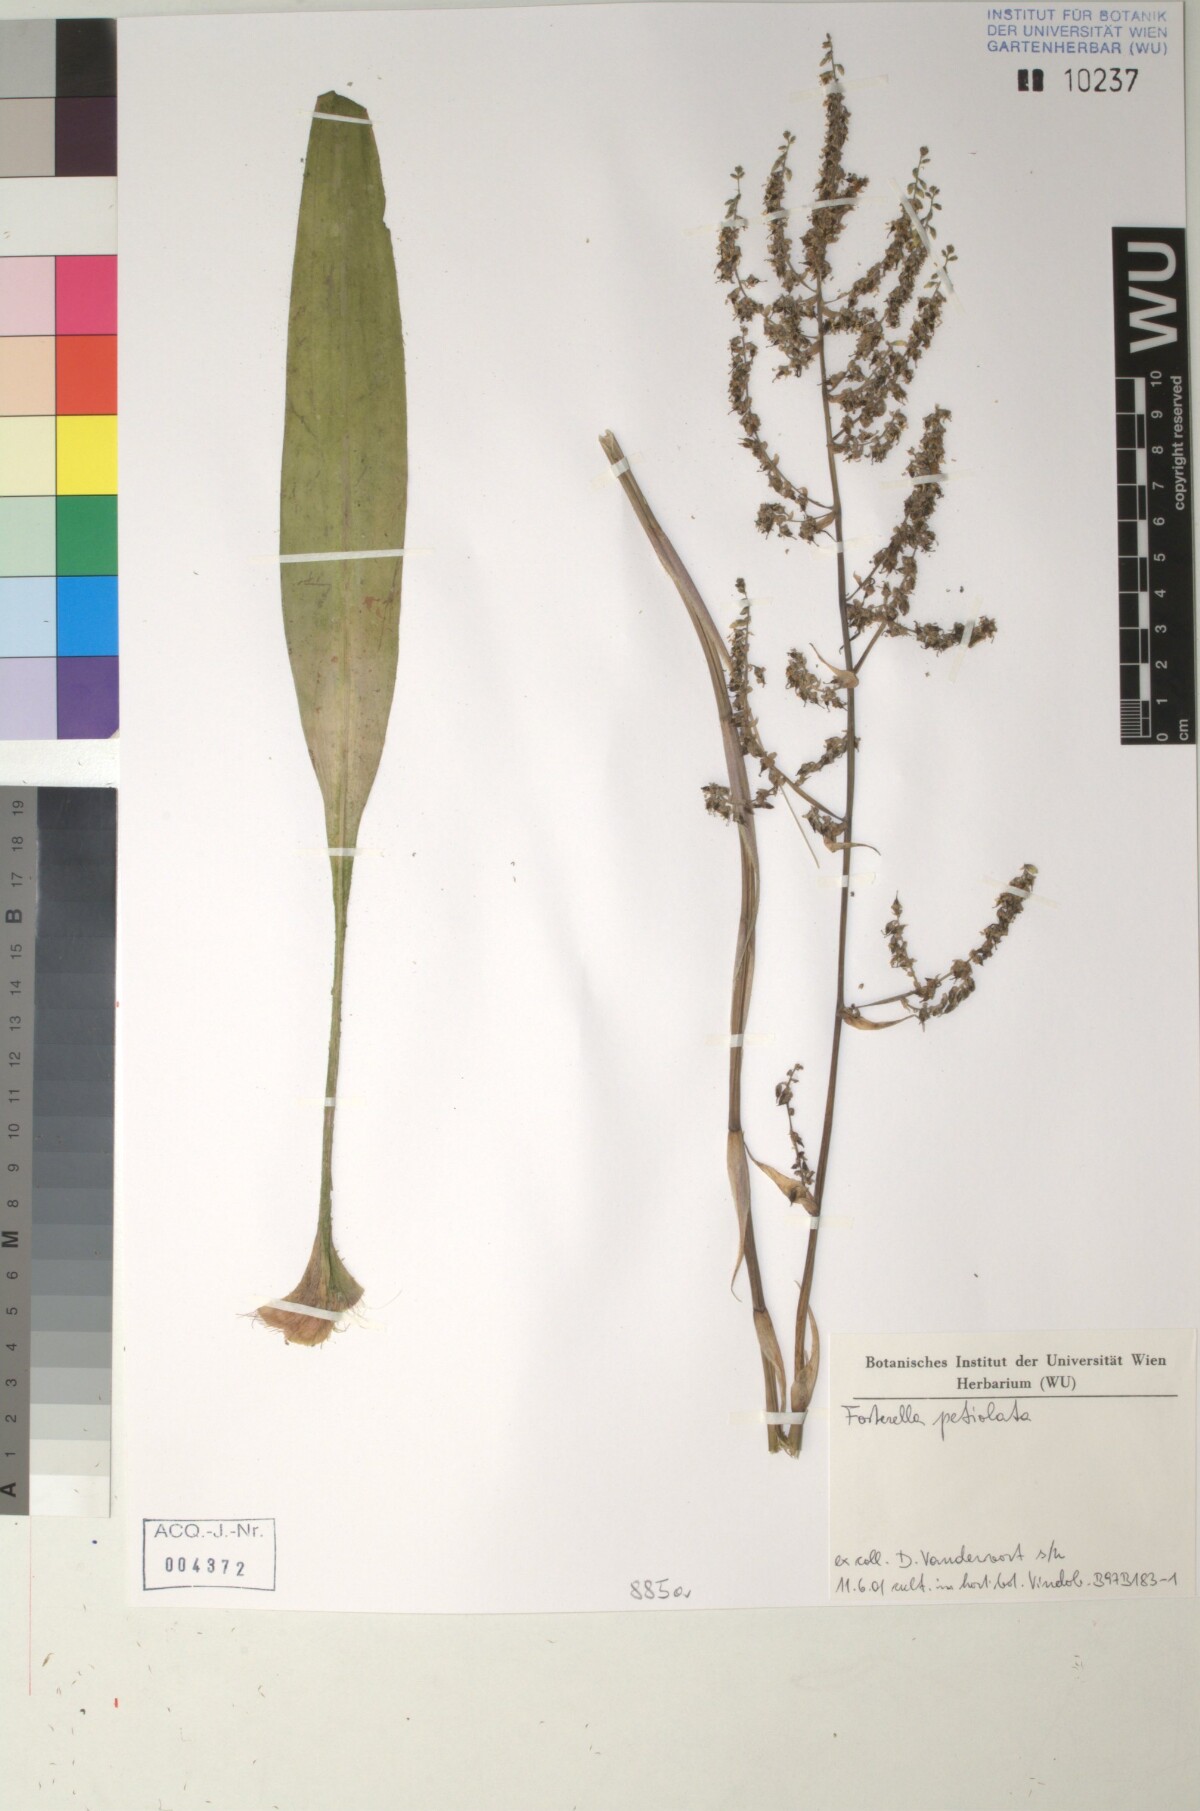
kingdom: Plantae
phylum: Tracheophyta
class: Liliopsida
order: Poales
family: Bromeliaceae
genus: Fosterella
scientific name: Fosterella petiolata
